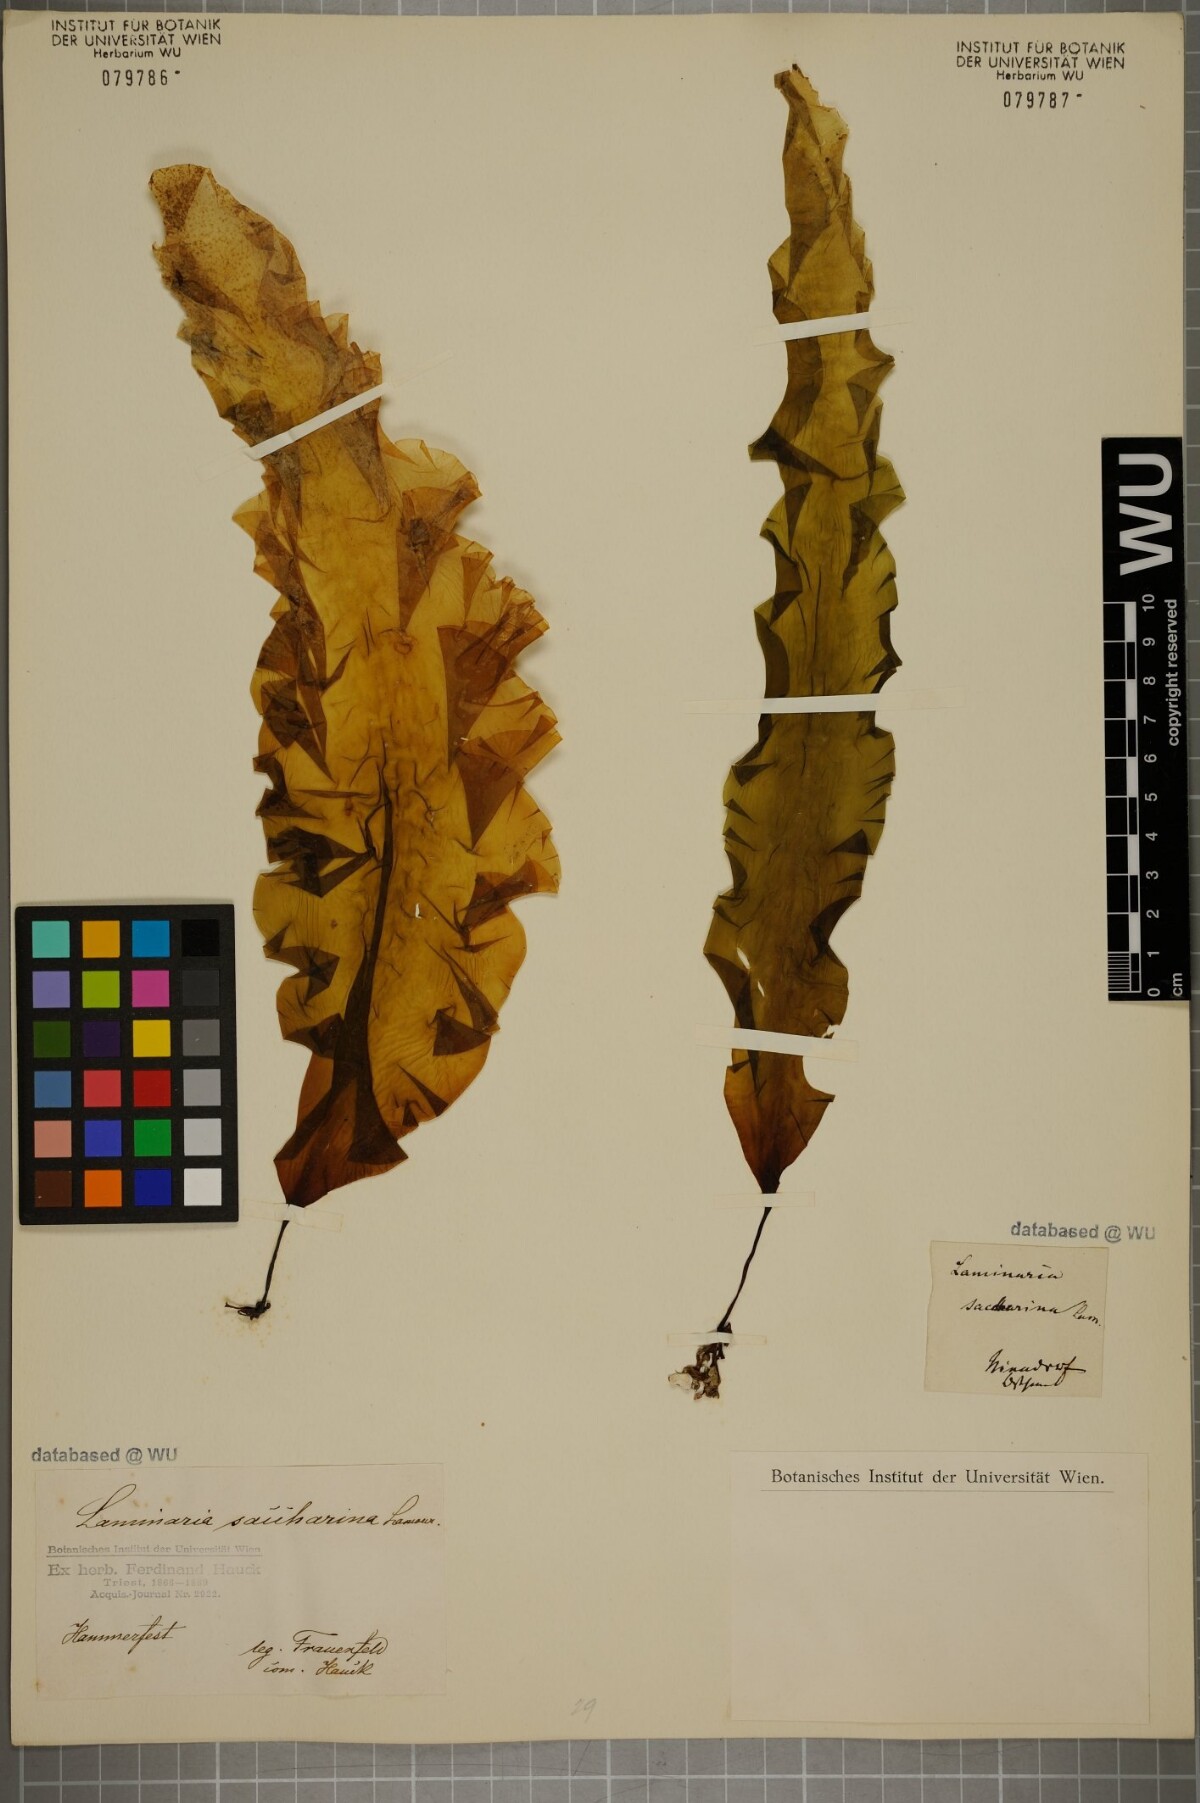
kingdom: Chromista
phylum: Ochrophyta
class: Phaeophyceae
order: Laminariales
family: Laminariaceae
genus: Saccharina
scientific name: Saccharina latissima
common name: Poor man's weather glass
